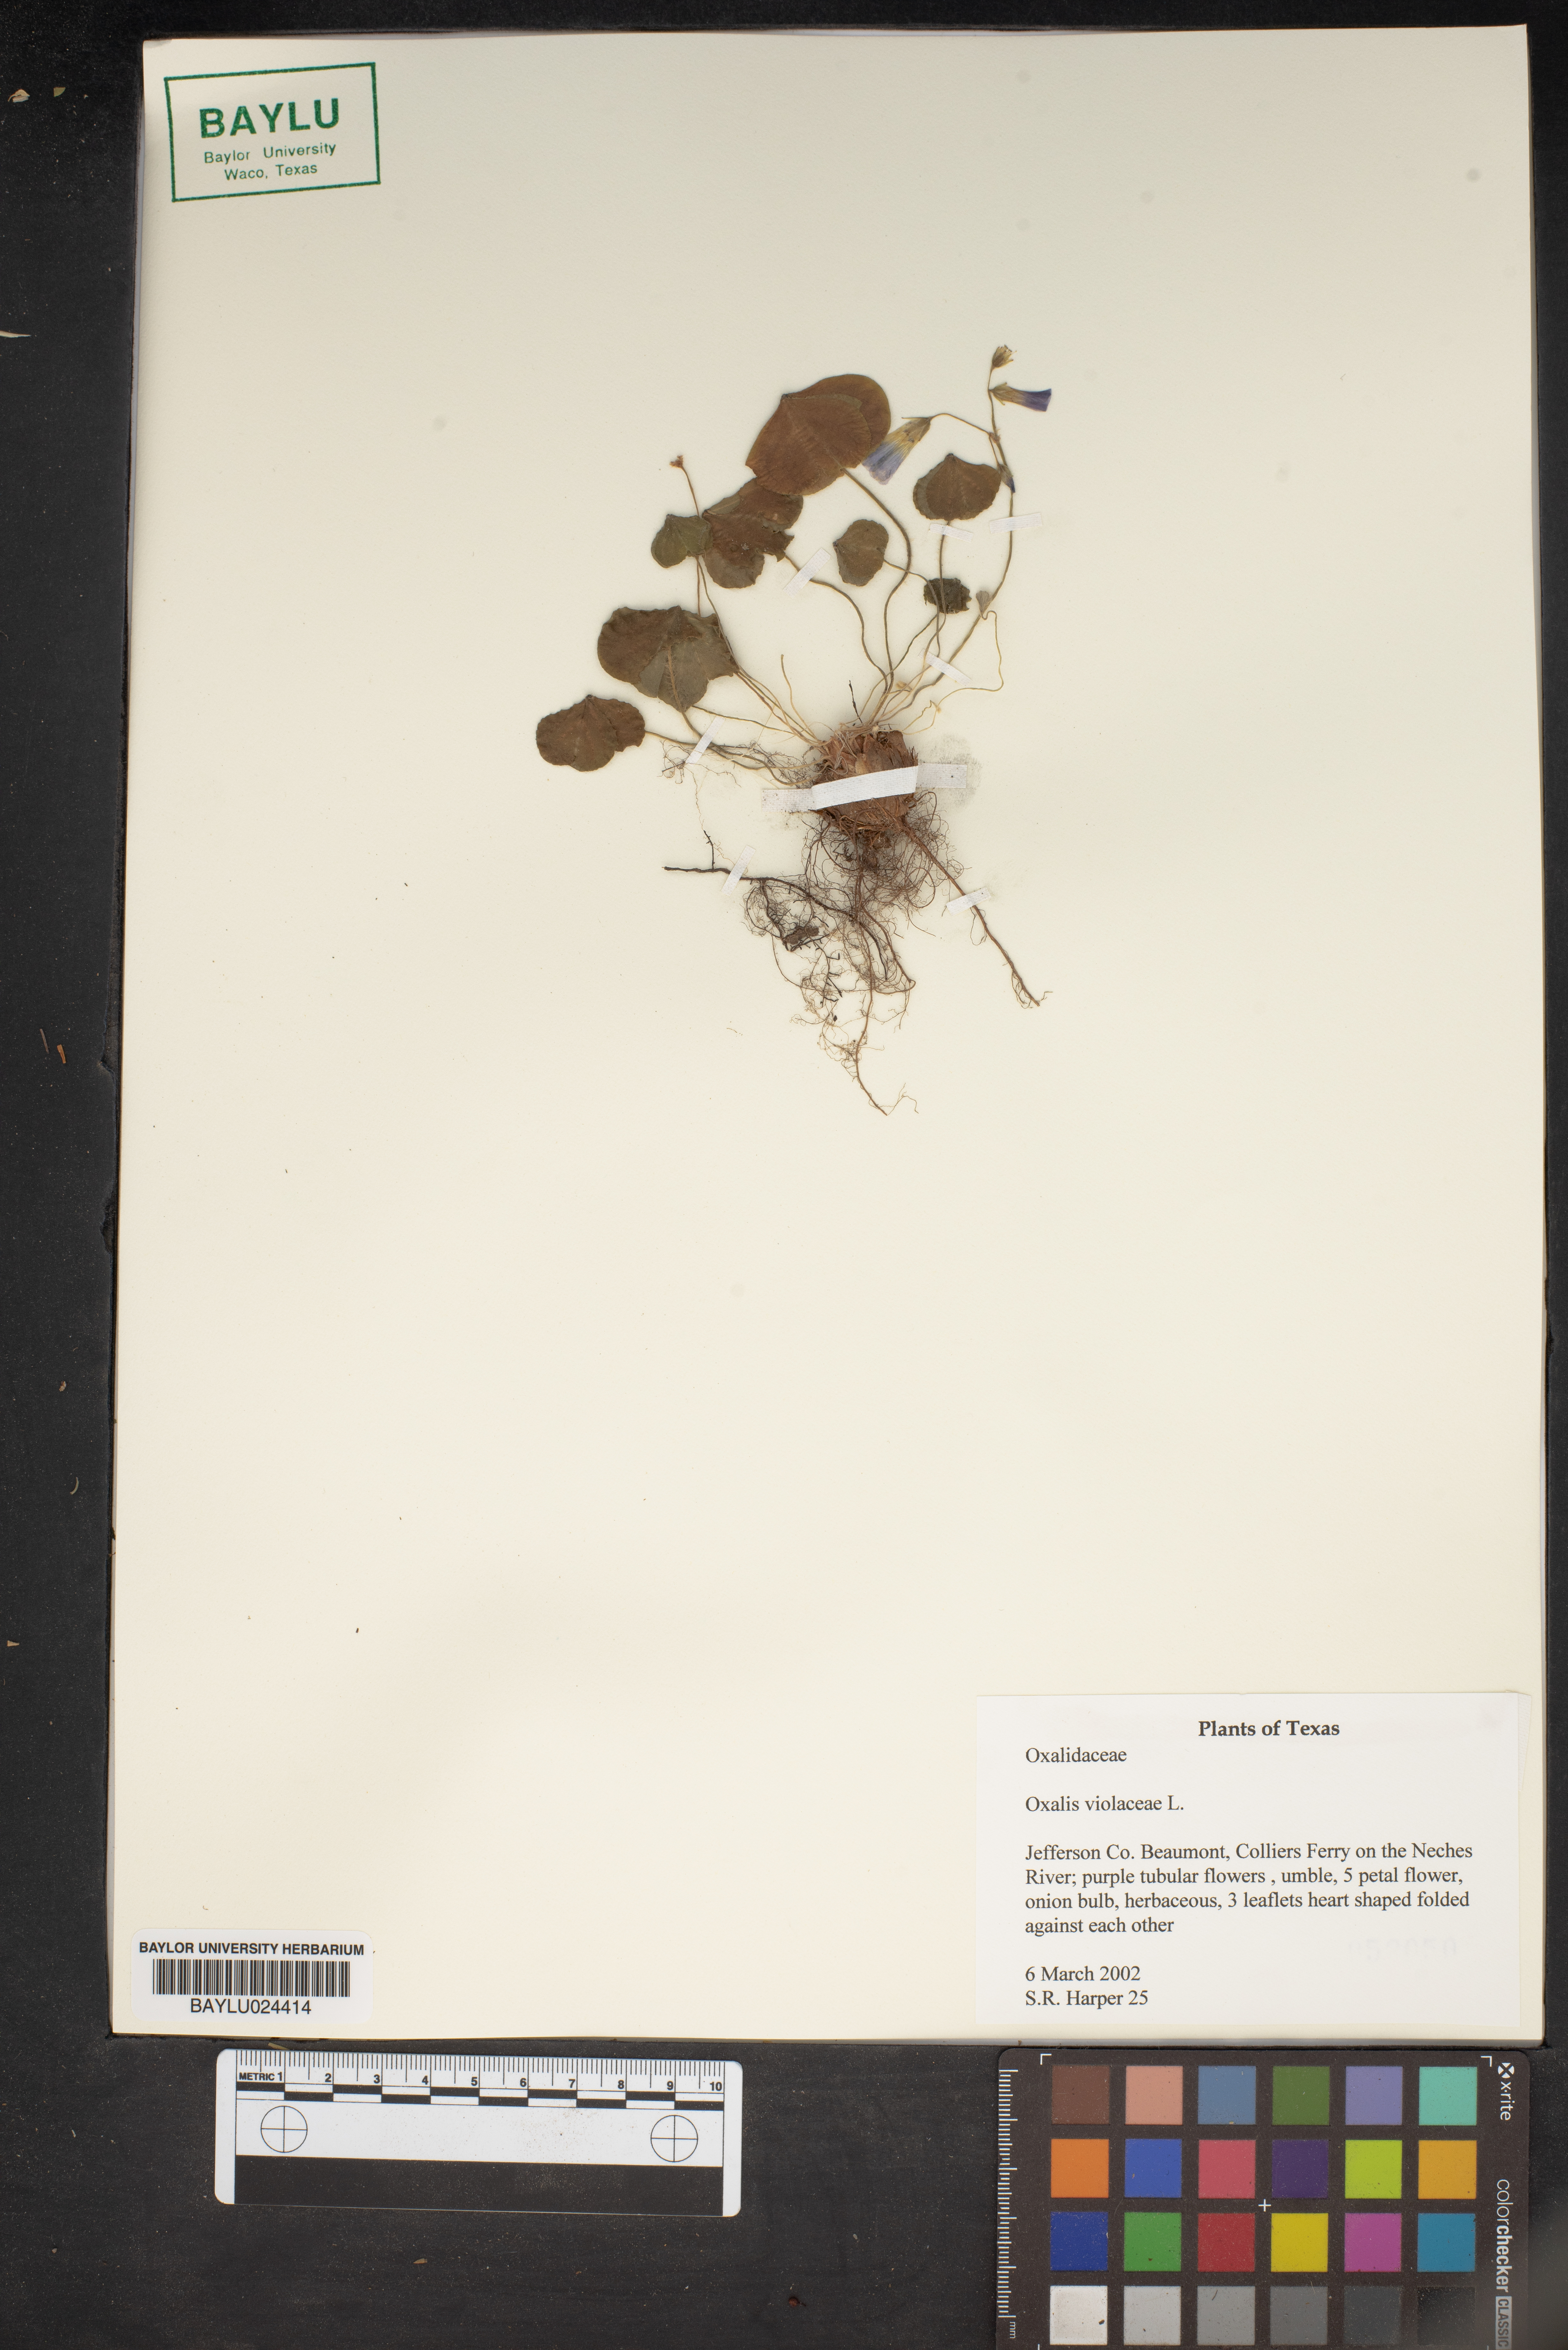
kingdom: Plantae
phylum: Tracheophyta
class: Magnoliopsida
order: Oxalidales
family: Oxalidaceae
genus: Oxalis
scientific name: Oxalis violacea
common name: Violet wood-sorrel
